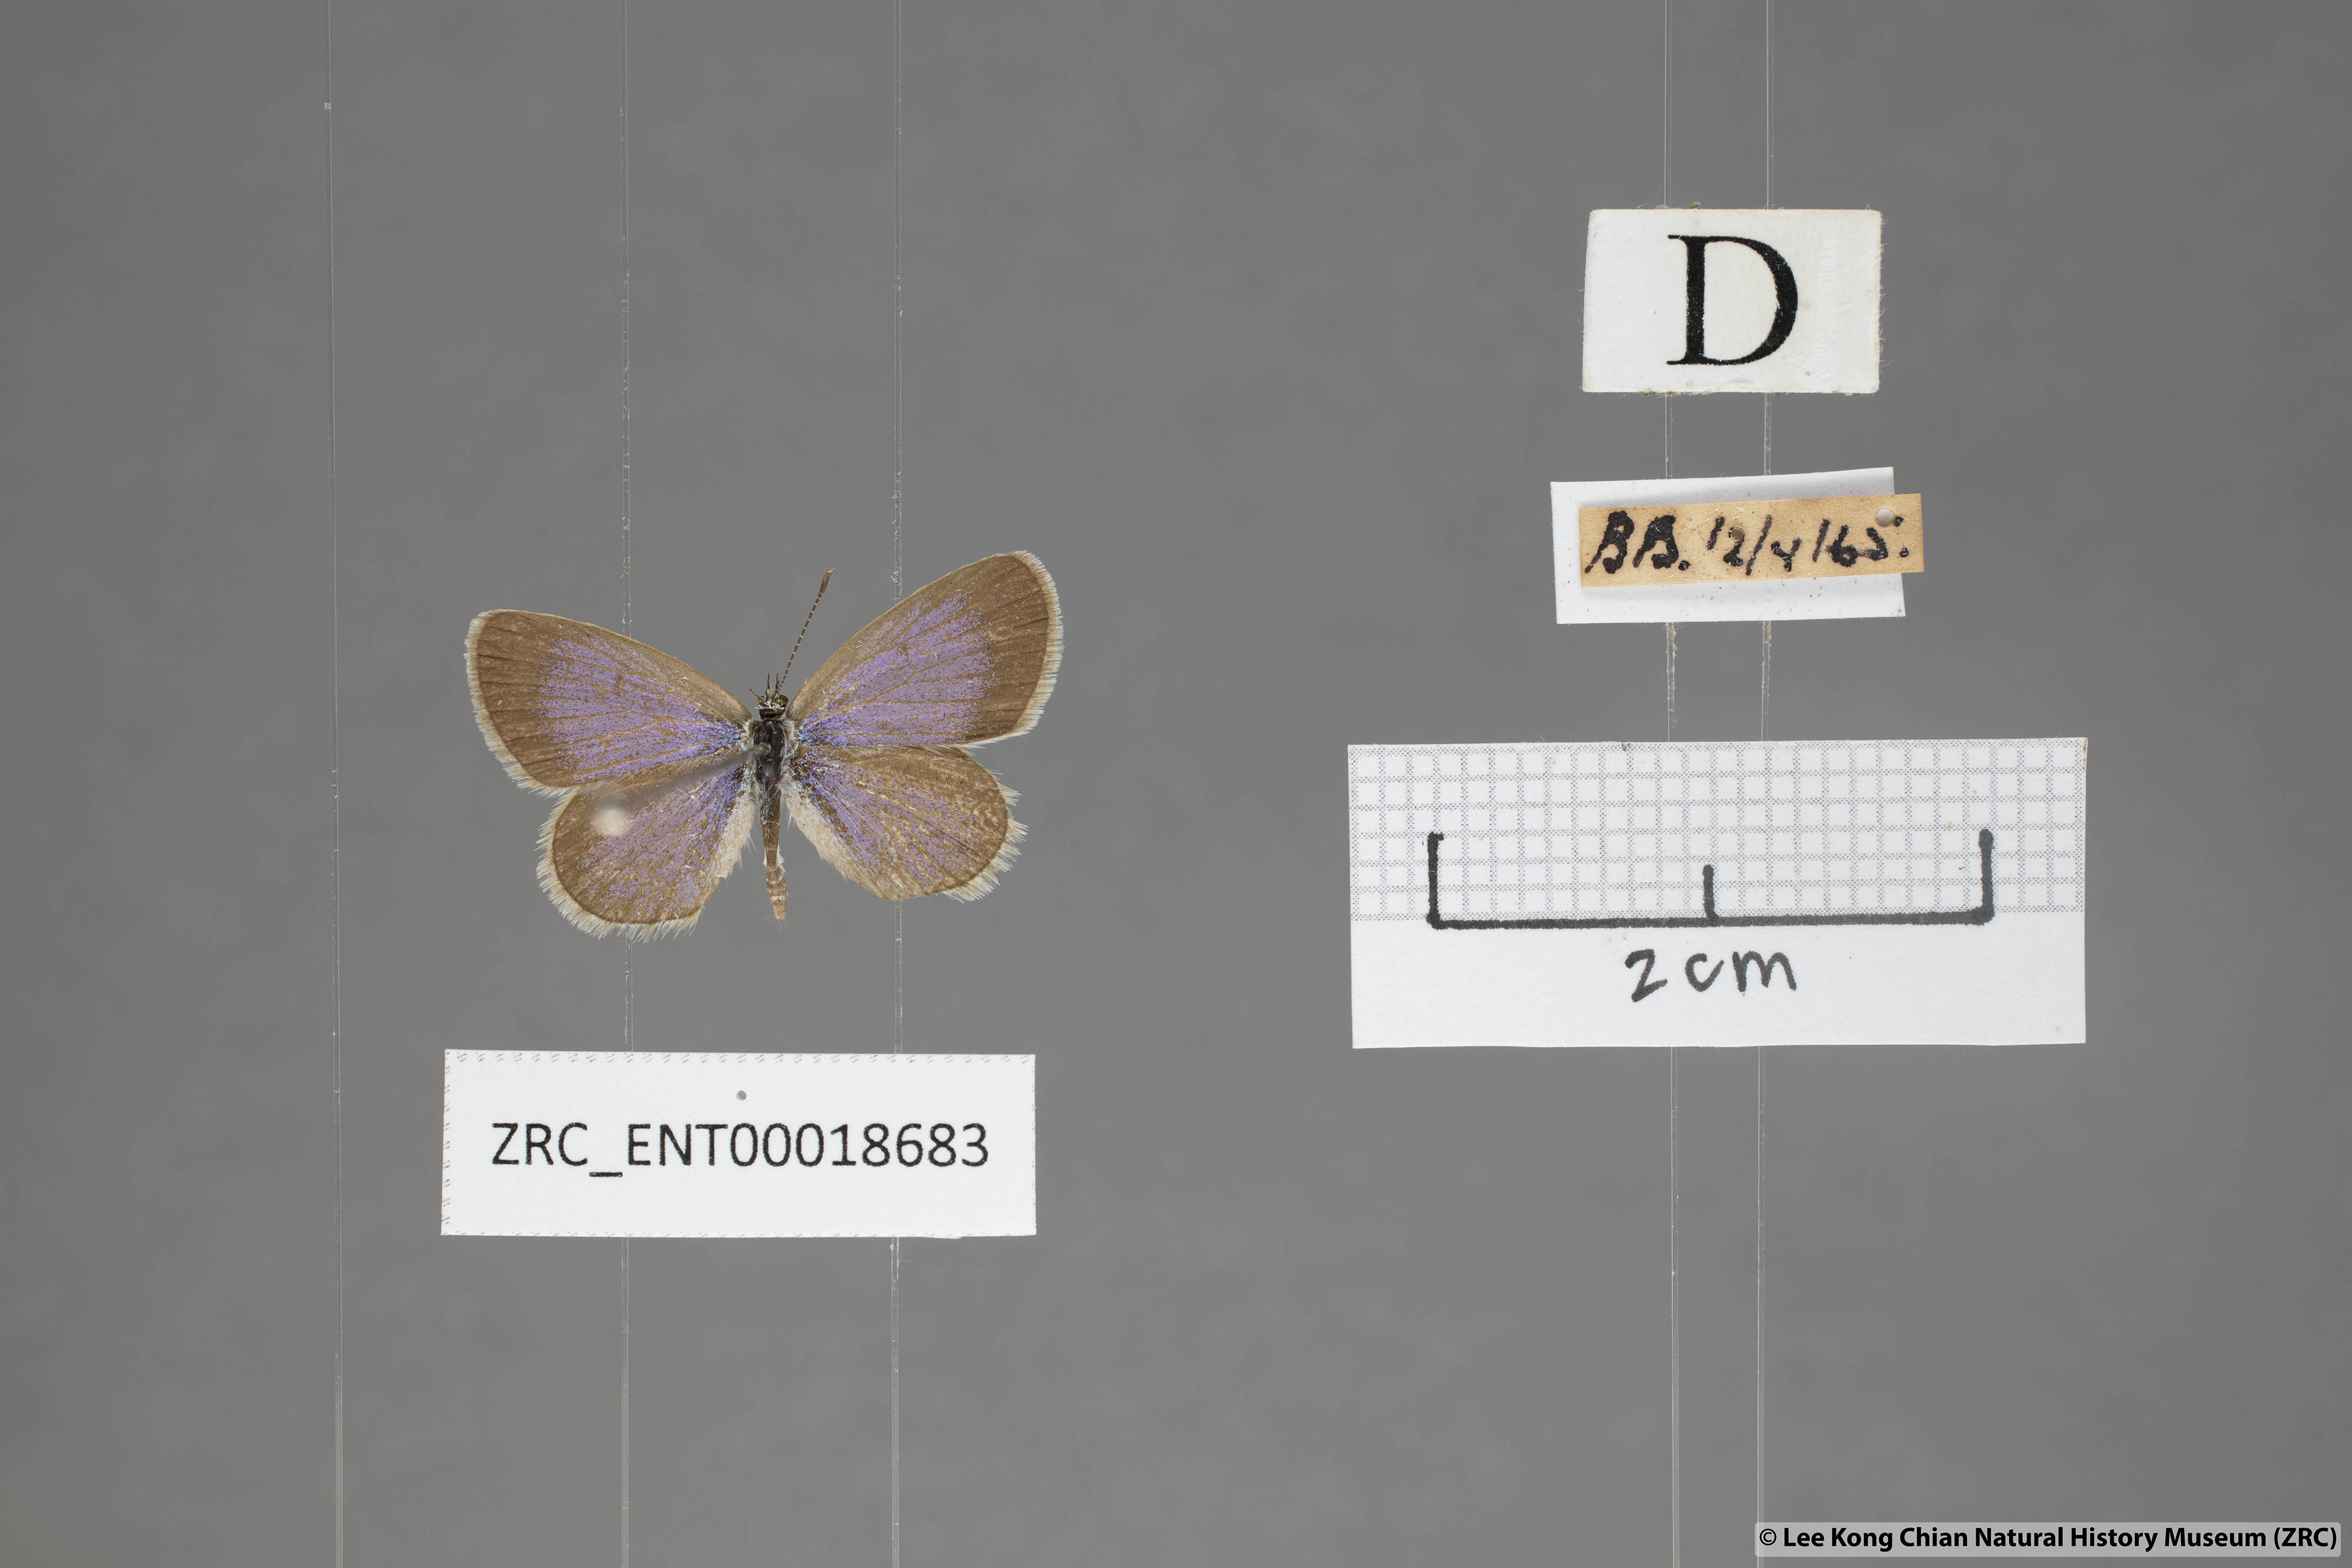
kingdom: Animalia
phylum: Arthropoda
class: Insecta
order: Lepidoptera
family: Lycaenidae
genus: Zizina
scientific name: Zizina otis
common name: Lesser grass blue
